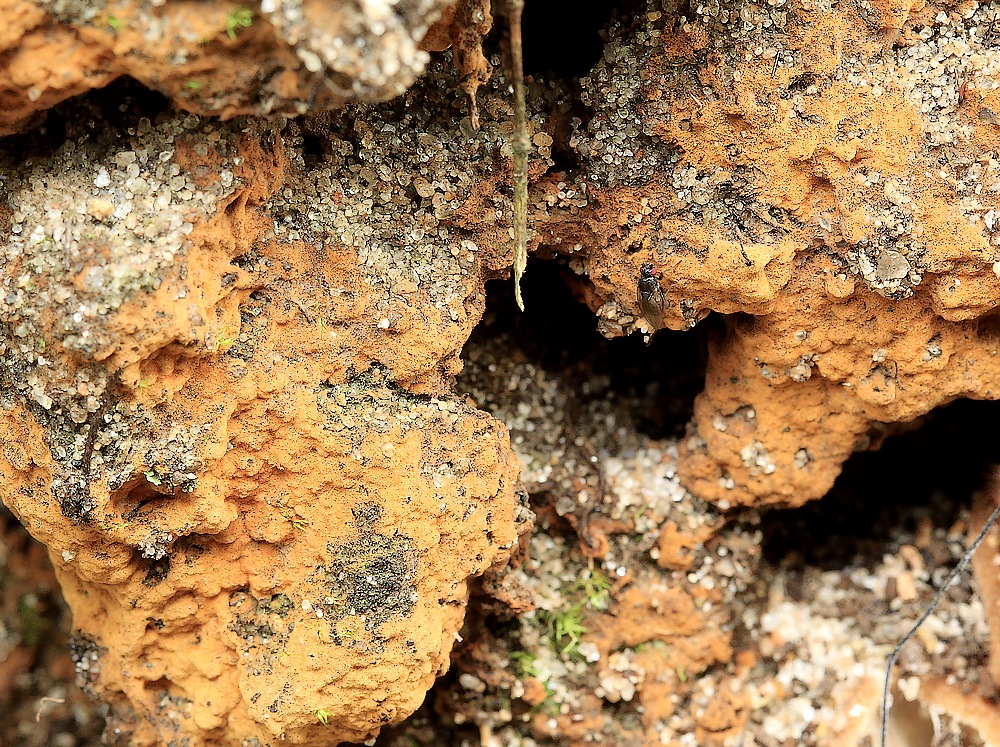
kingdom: Fungi
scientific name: Fungi
